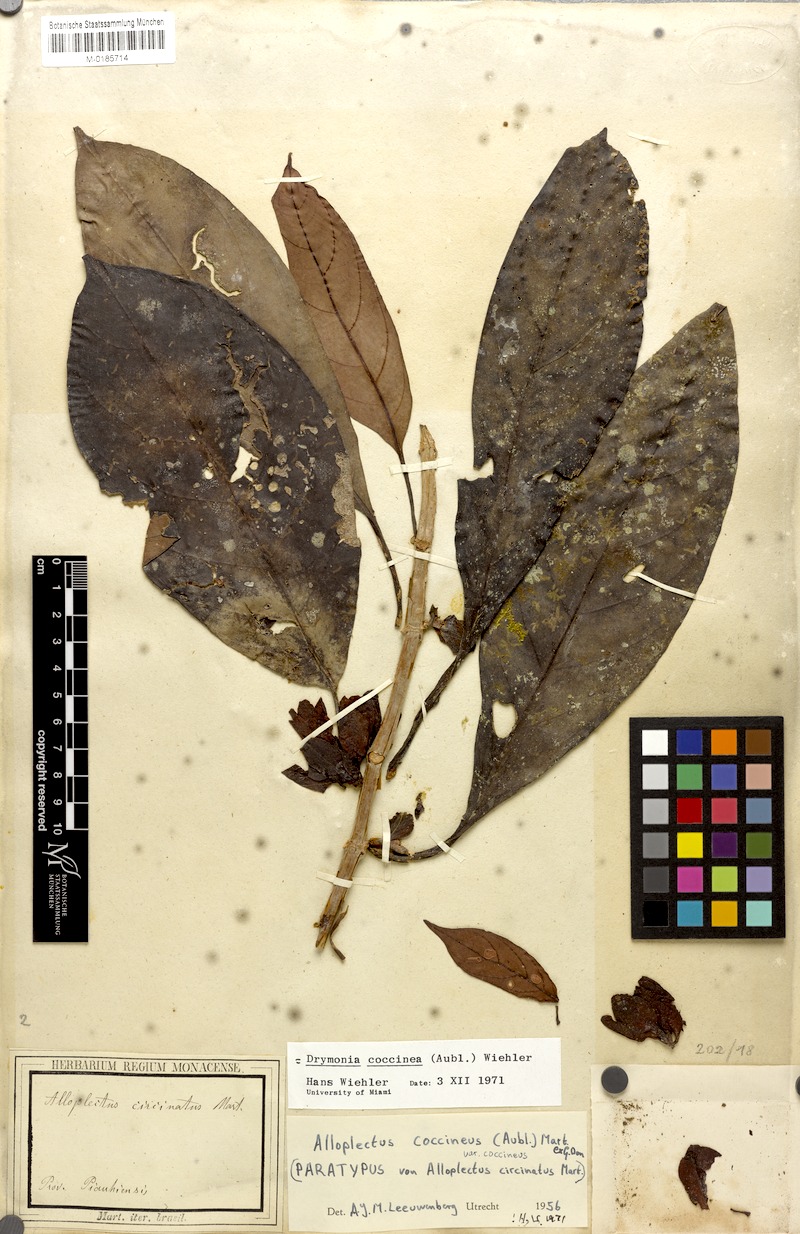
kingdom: Plantae
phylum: Tracheophyta
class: Magnoliopsida
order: Lamiales
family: Gesneriaceae
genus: Drymonia
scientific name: Drymonia coccinea
